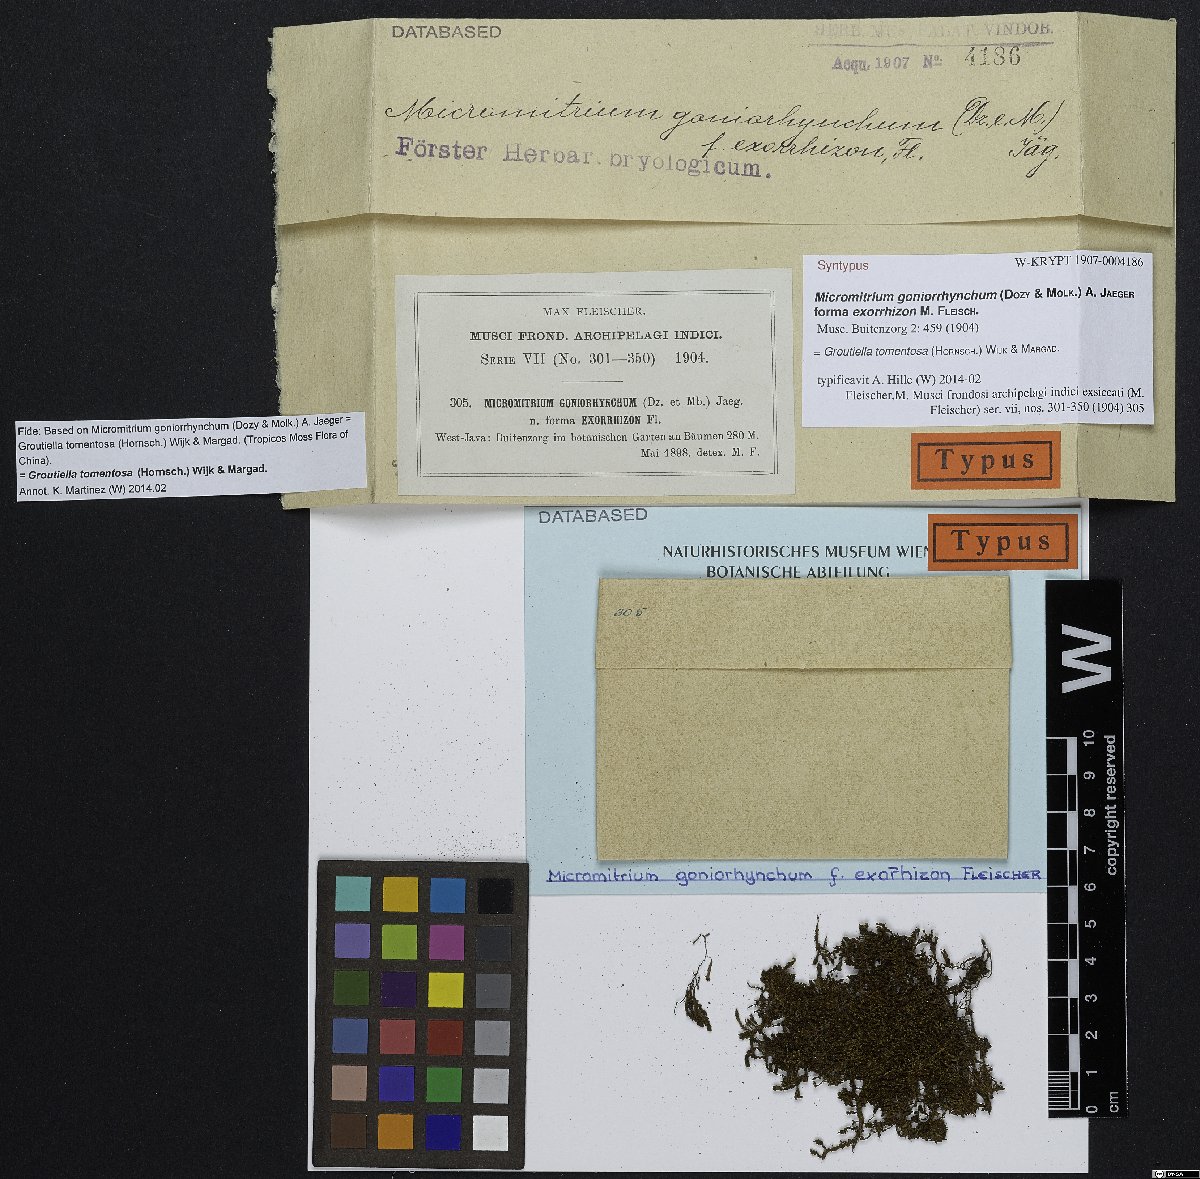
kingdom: Plantae
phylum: Bryophyta
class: Bryopsida
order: Orthotrichales
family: Orthotrichaceae
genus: Groutiella
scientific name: Groutiella tomentosa
